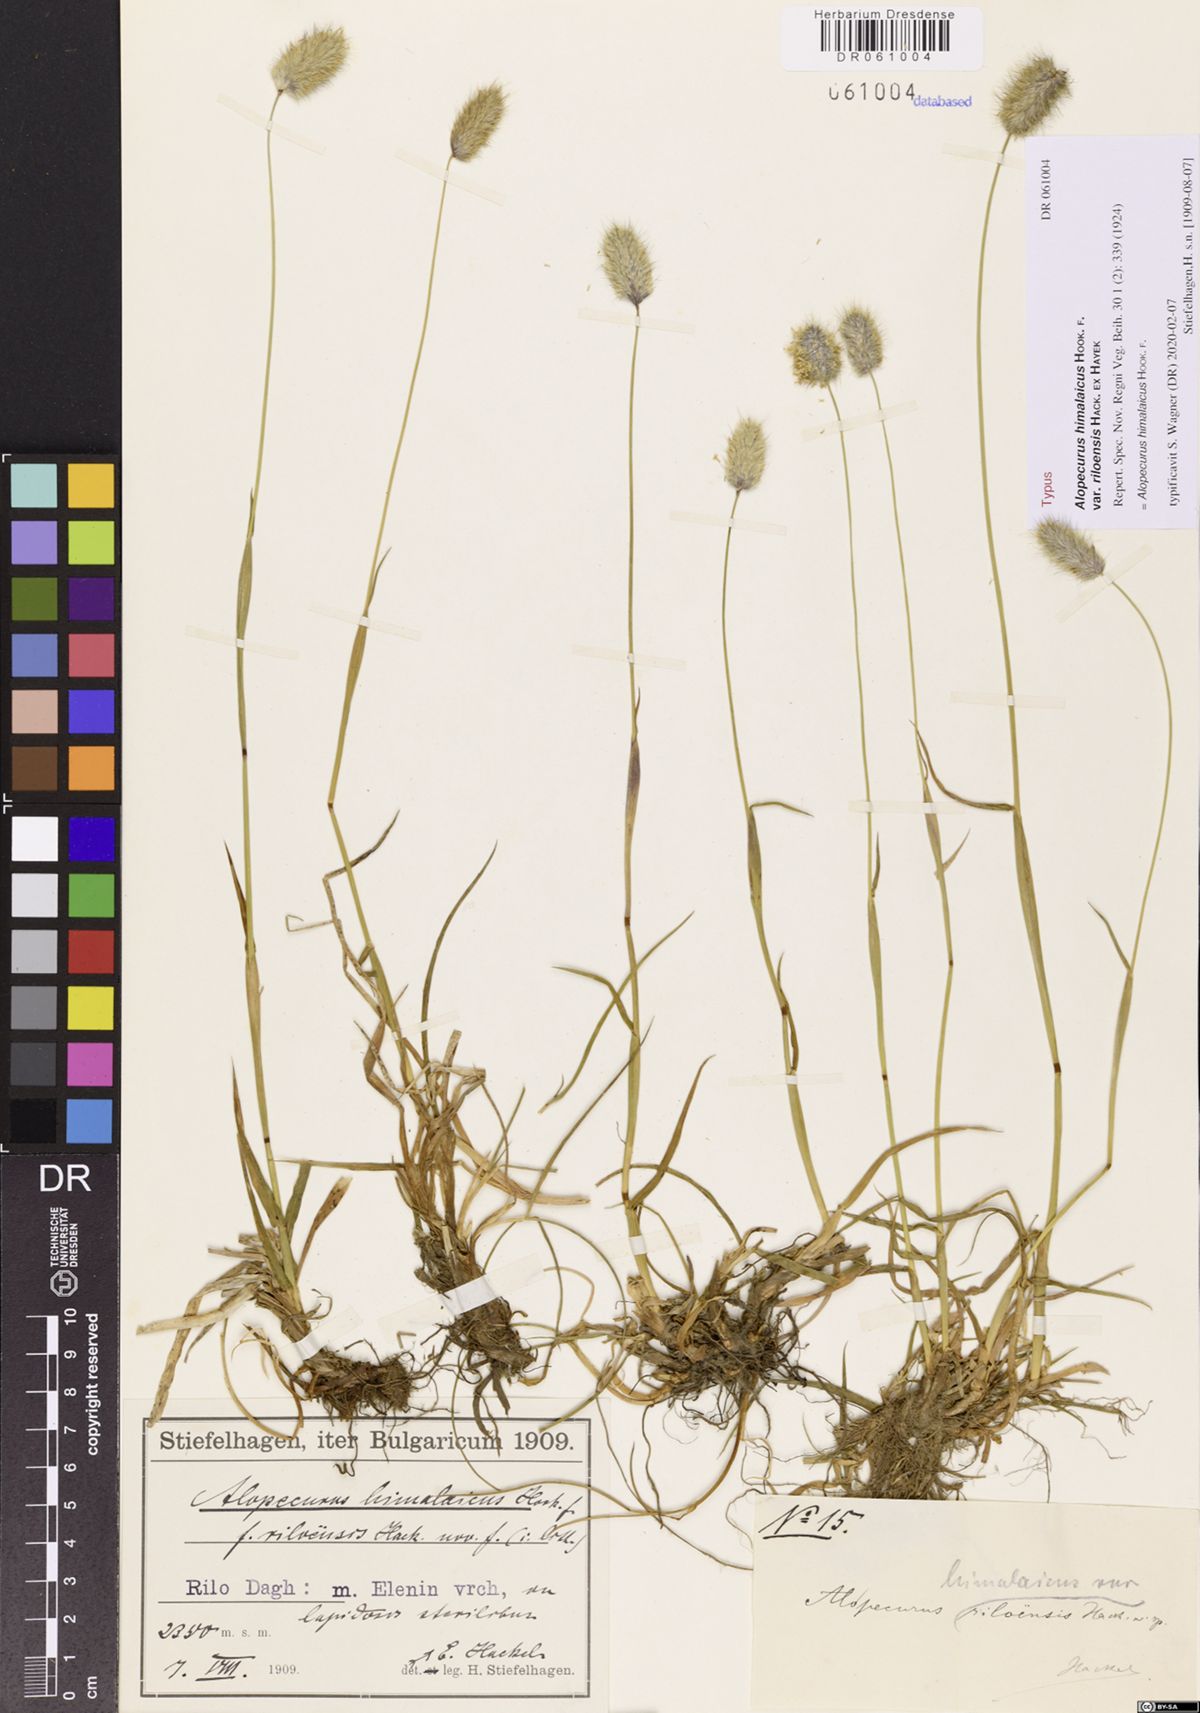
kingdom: Plantae
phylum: Tracheophyta
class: Liliopsida
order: Poales
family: Poaceae
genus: Alopecurus
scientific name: Alopecurus himalaicus
